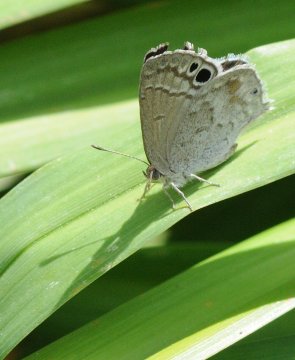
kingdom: Animalia
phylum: Arthropoda
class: Insecta
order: Lepidoptera
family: Lycaenidae
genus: Leptomyrina
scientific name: Leptomyrina gorgias
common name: Common Black-eye
